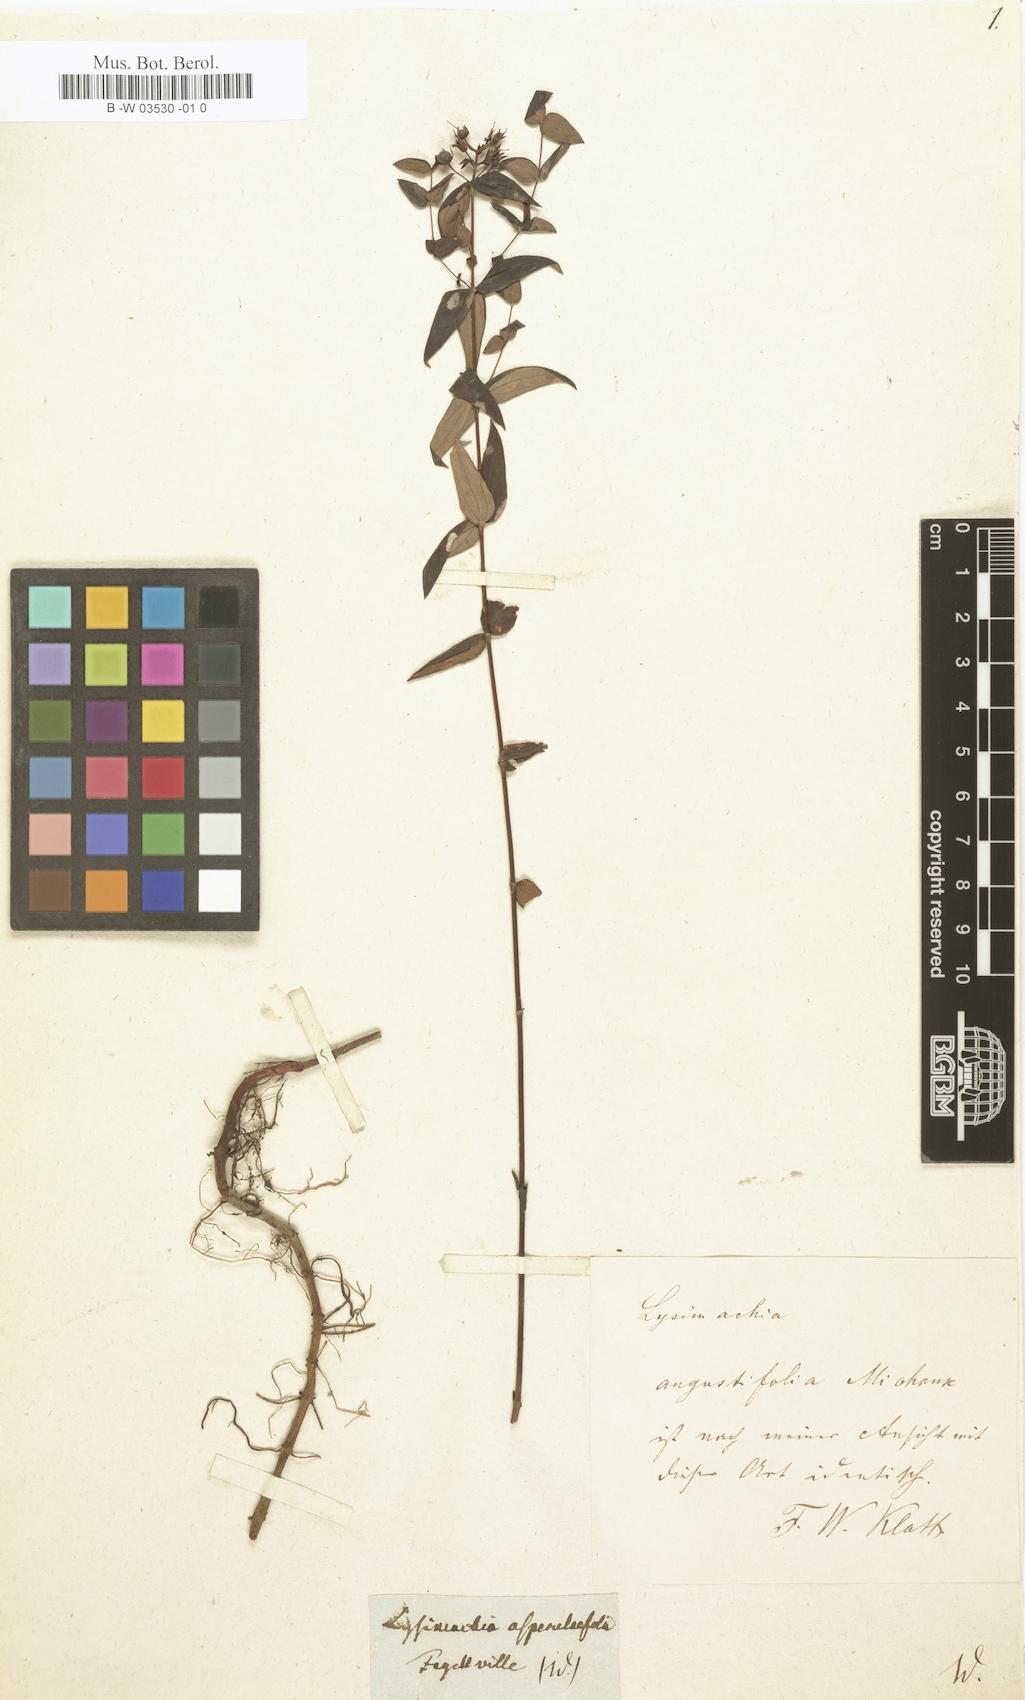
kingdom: Plantae
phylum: Tracheophyta
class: Magnoliopsida
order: Ericales
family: Primulaceae
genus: Lysimachia
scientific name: Lysimachia asperulifolia
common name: Rough-leaf loosestrife
